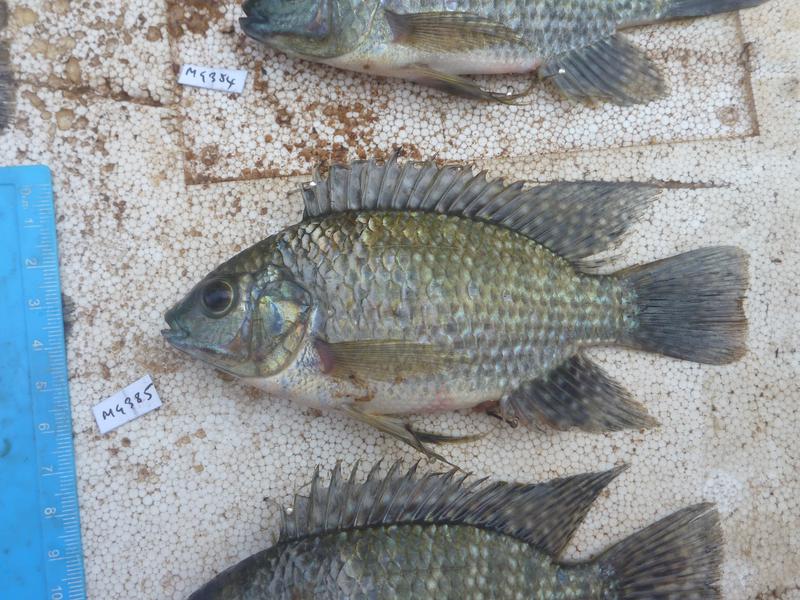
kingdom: Animalia
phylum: Chordata
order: Perciformes
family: Cichlidae
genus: Oreochromis
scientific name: Oreochromis leucostictus
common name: Blue spotted tilapia
